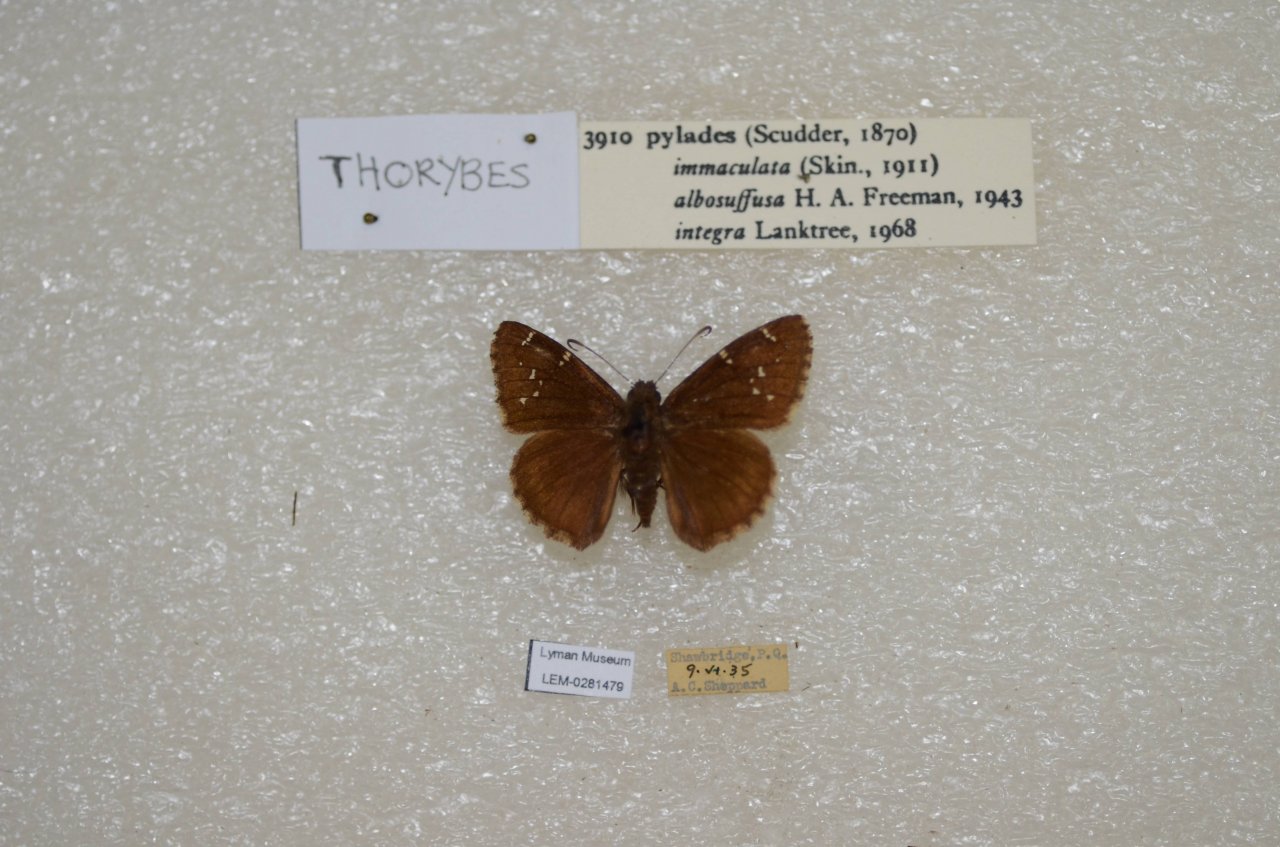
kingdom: Animalia
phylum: Arthropoda
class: Insecta
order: Lepidoptera
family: Hesperiidae
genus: Autochton
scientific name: Autochton
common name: Northern Cloudywing
